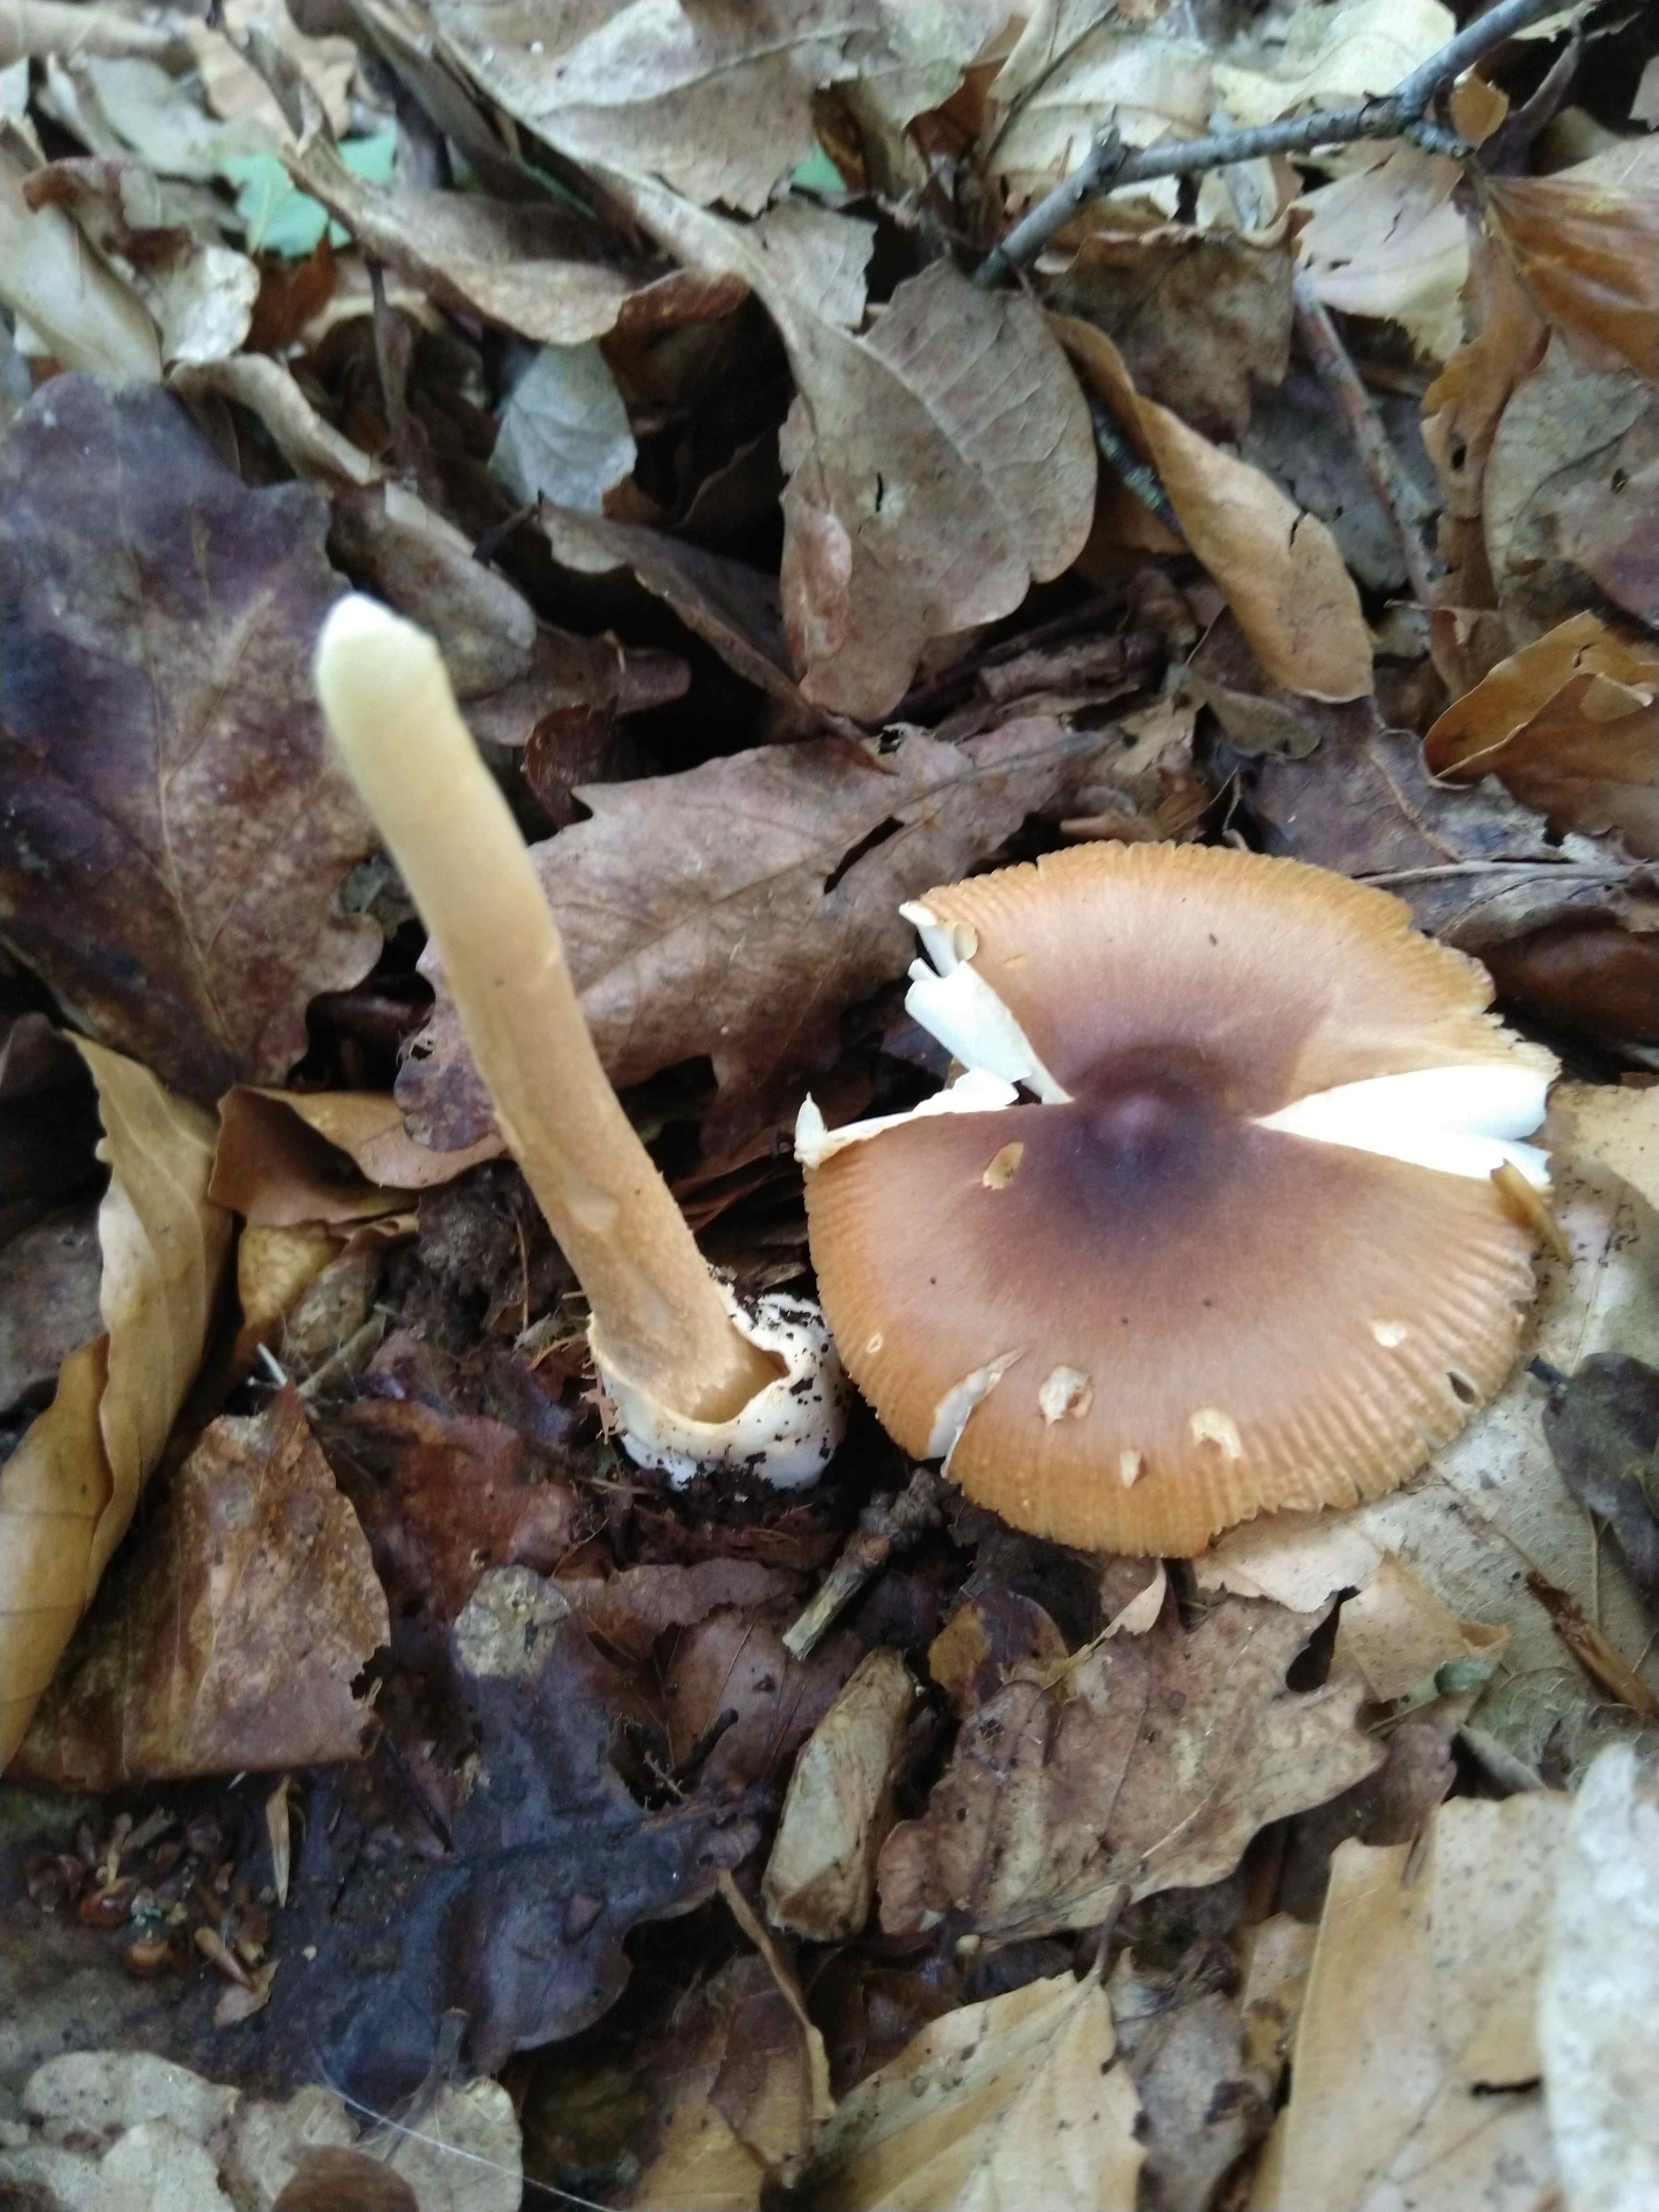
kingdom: Fungi
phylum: Basidiomycota
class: Agaricomycetes
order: Agaricales
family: Amanitaceae
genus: Amanita
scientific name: Amanita fulva
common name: brun kam-fluesvamp
